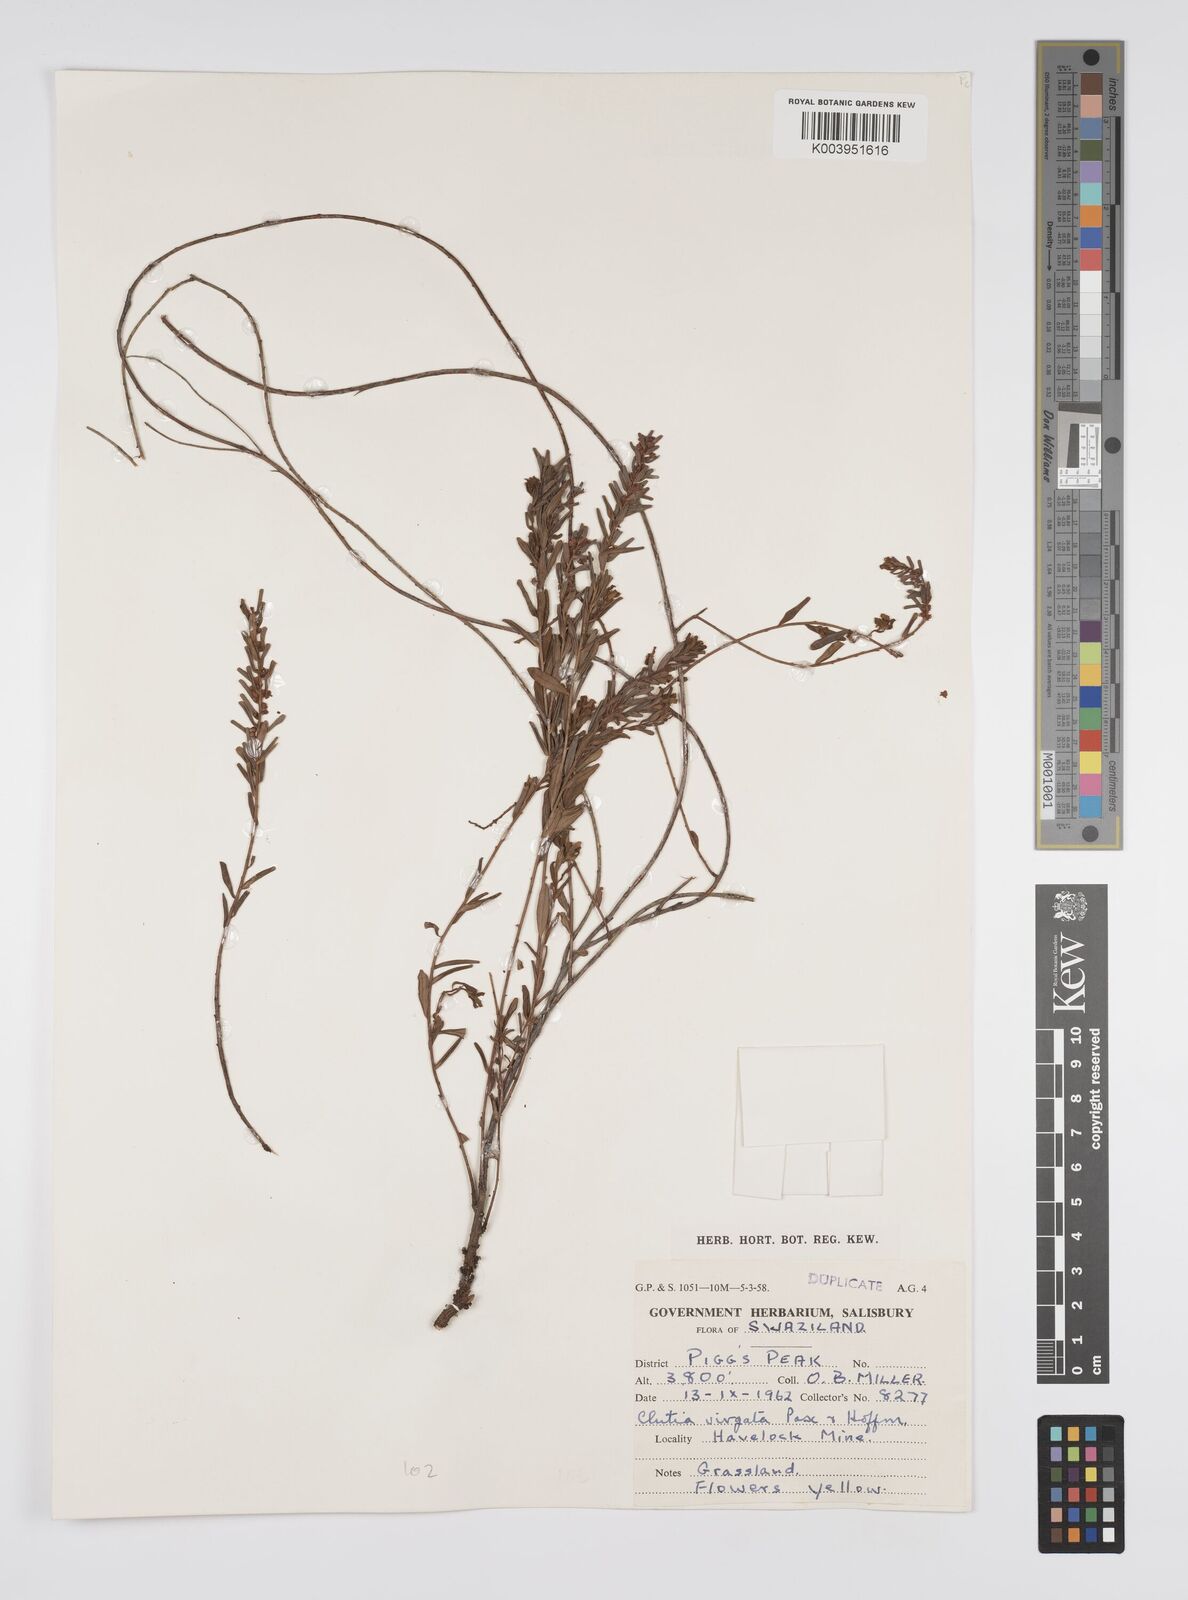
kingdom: Plantae
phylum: Tracheophyta
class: Magnoliopsida
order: Malpighiales
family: Peraceae
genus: Clutia
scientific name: Clutia virgata
